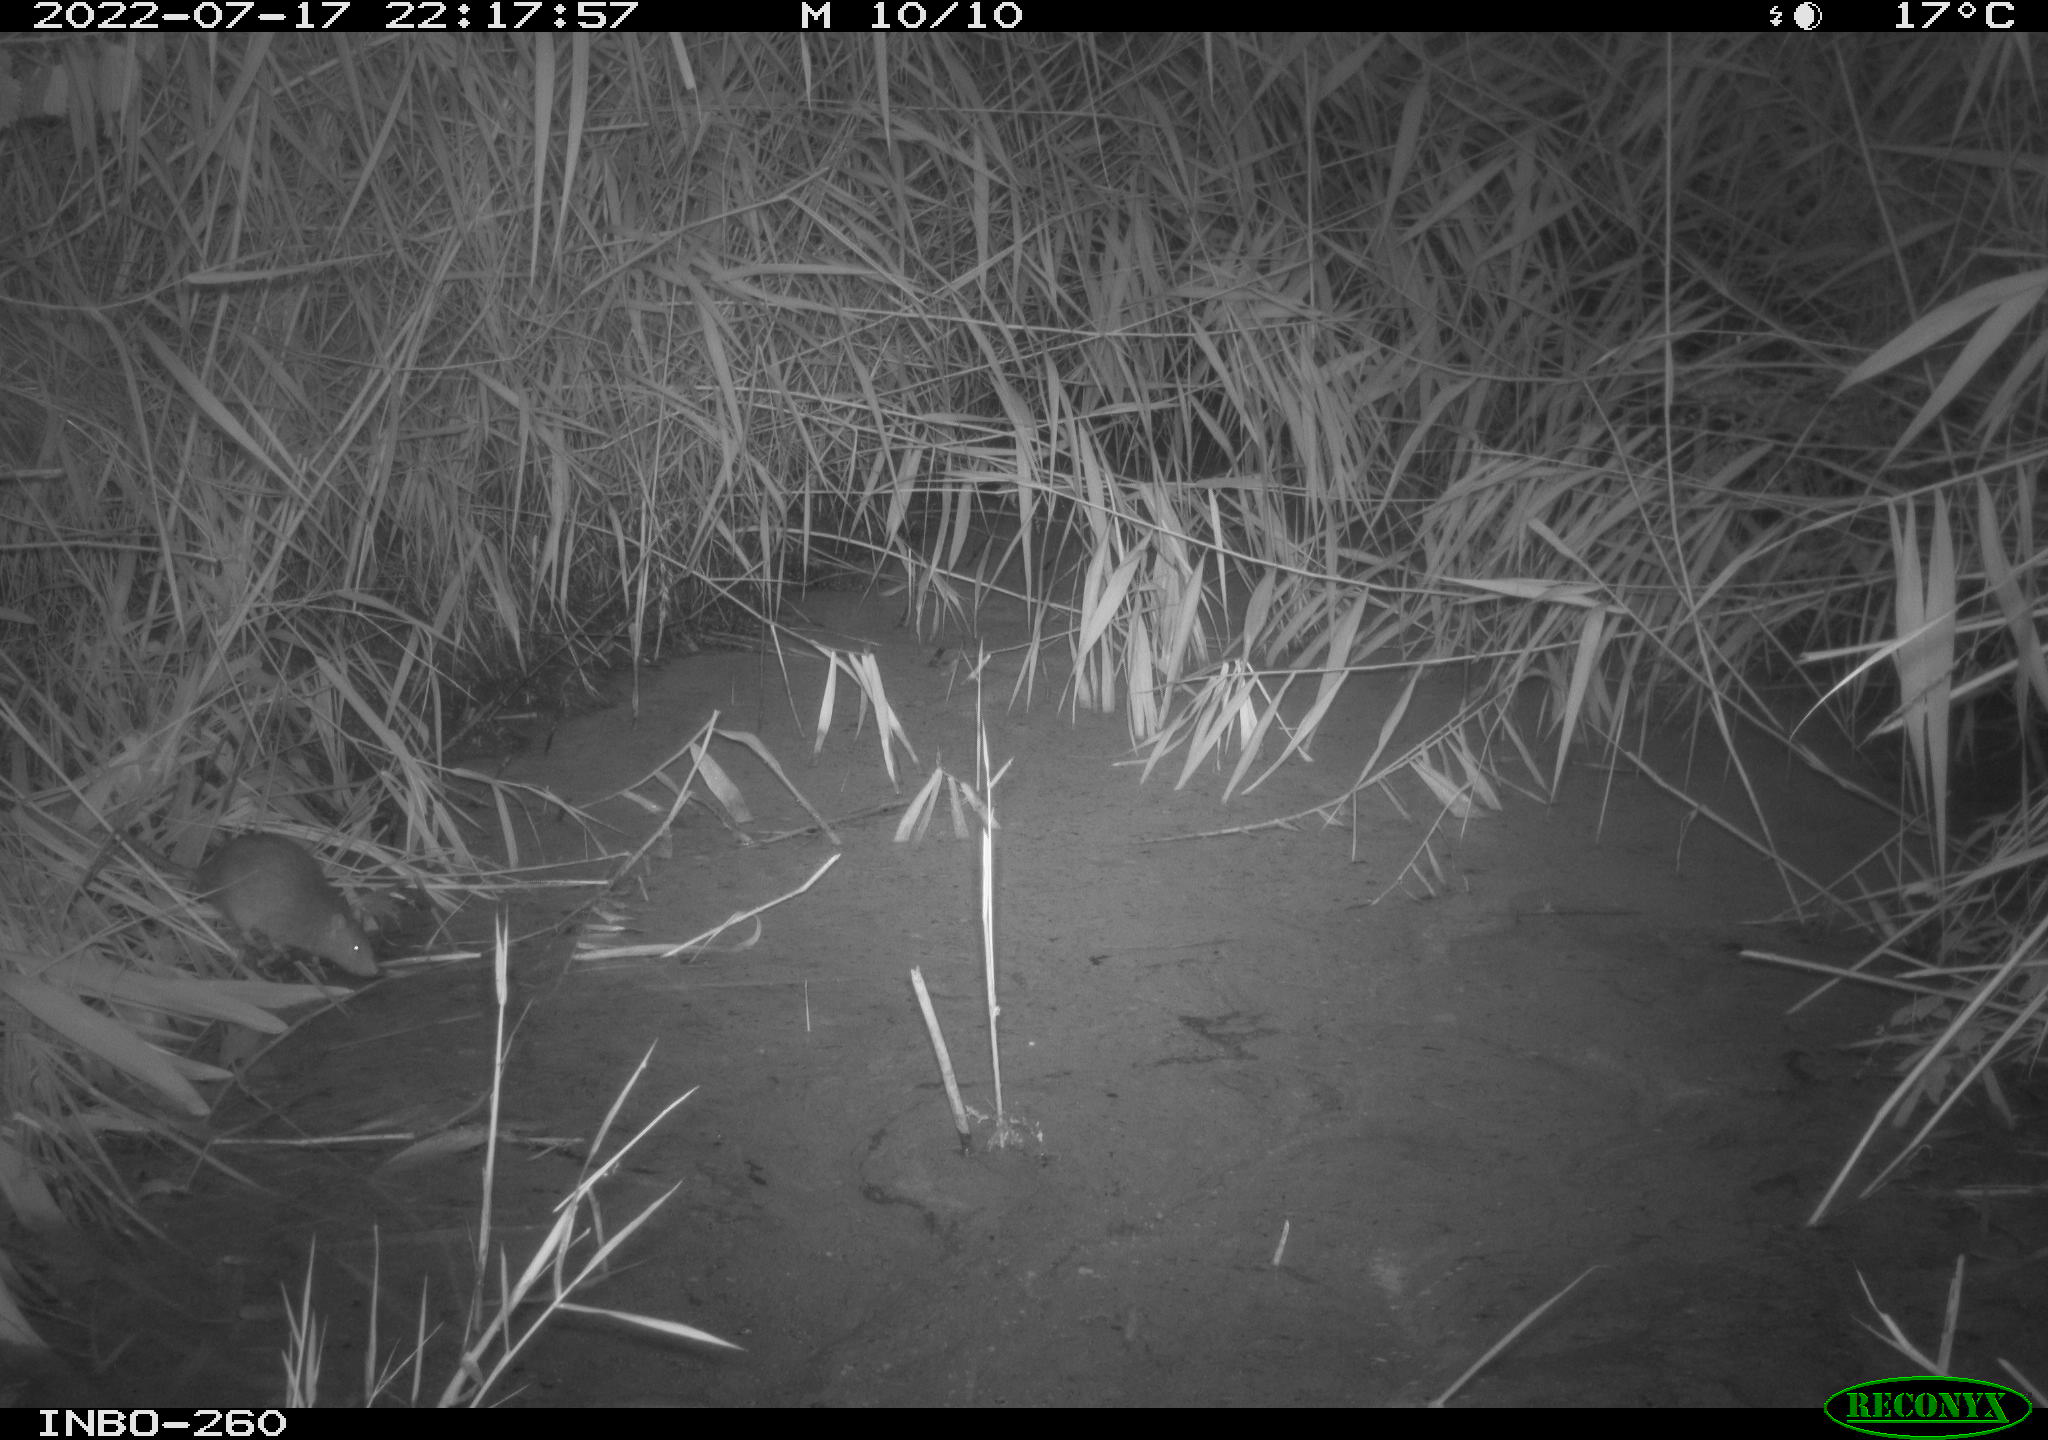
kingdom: Animalia
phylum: Chordata
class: Mammalia
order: Rodentia
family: Muridae
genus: Rattus
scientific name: Rattus norvegicus
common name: Brown rat
